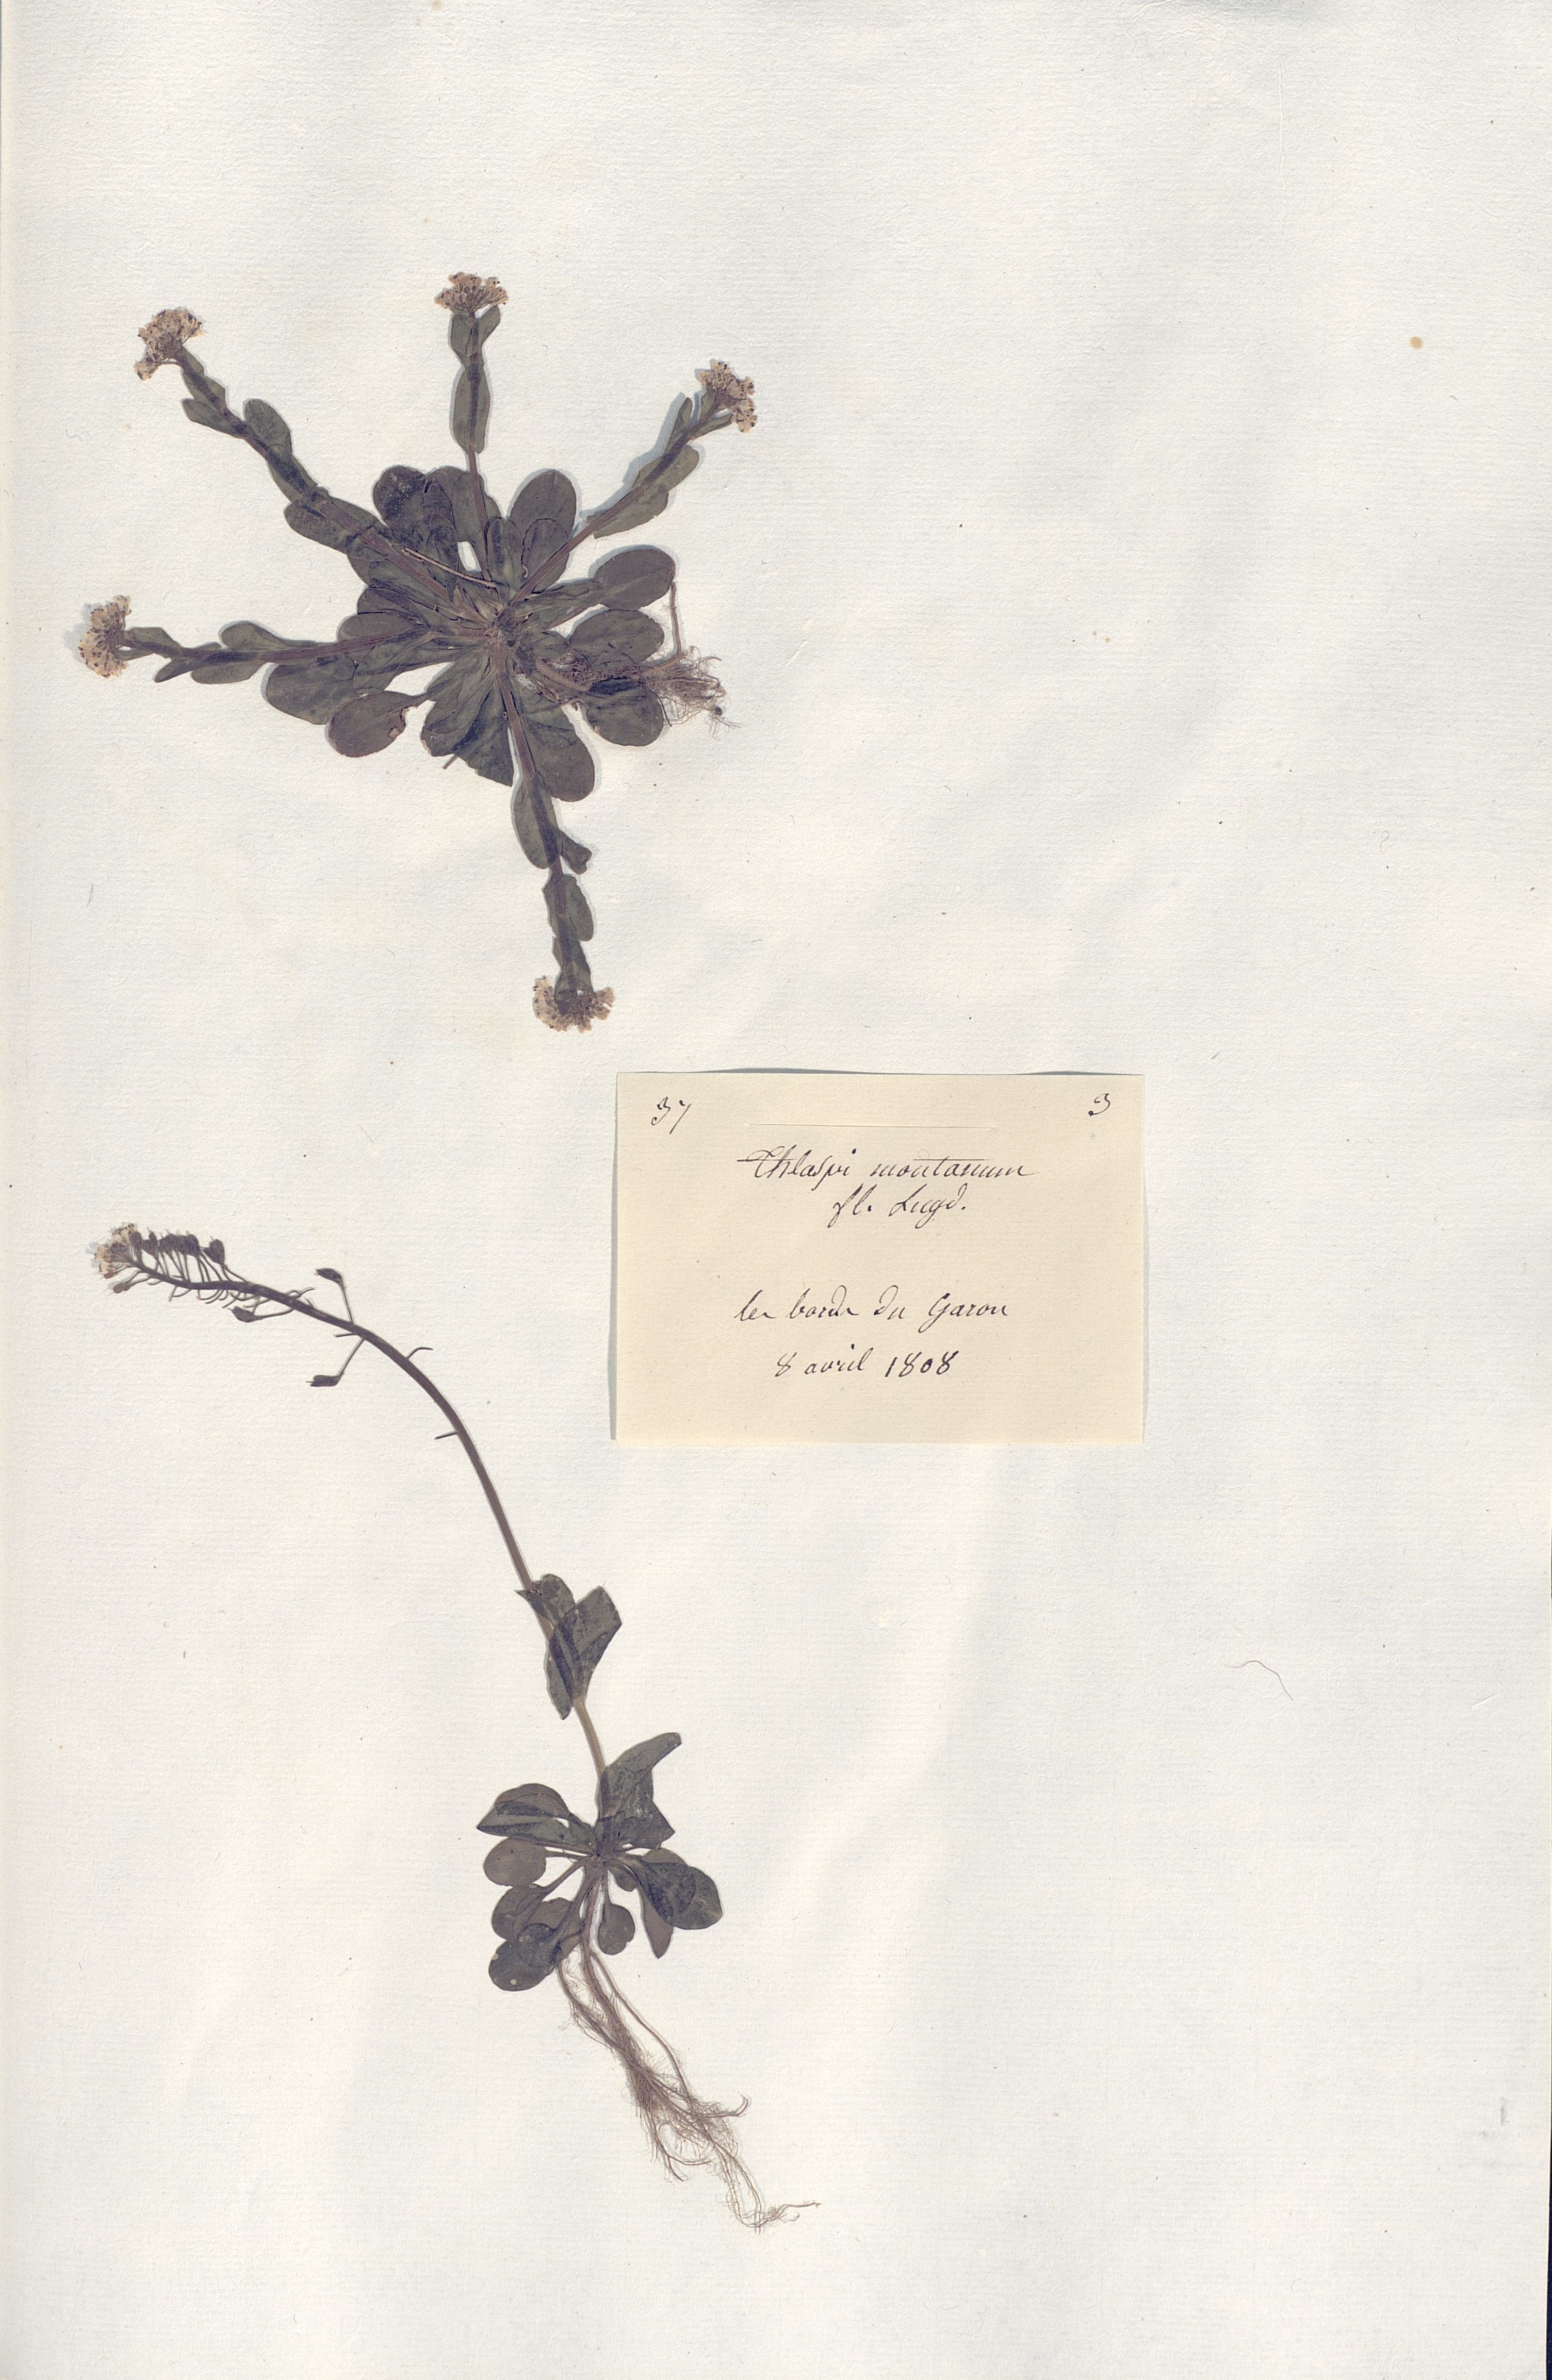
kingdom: Plantae
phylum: Tracheophyta
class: Magnoliopsida
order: Brassicales
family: Brassicaceae
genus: Thlaspi
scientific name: Thlaspi montanum
